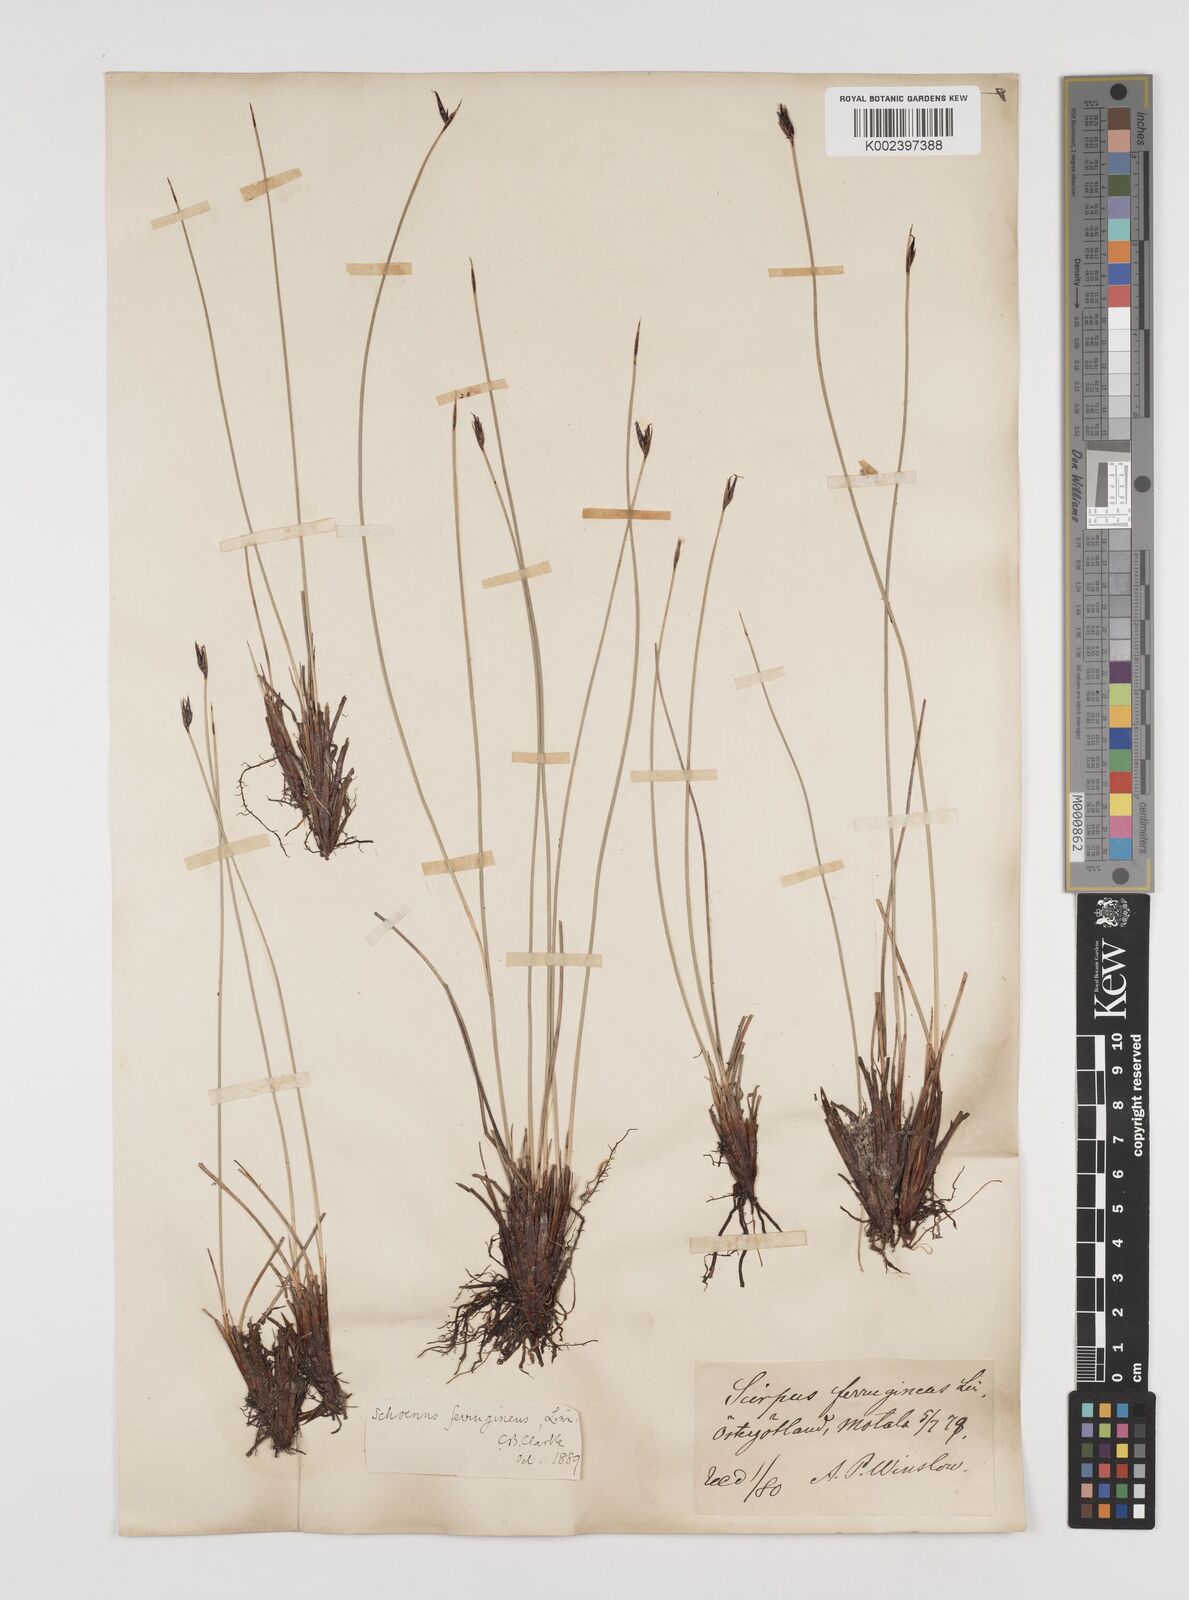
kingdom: Plantae
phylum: Tracheophyta
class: Liliopsida
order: Poales
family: Cyperaceae
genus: Schoenus
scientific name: Schoenus ferrugineus
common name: Brown bog-rush
